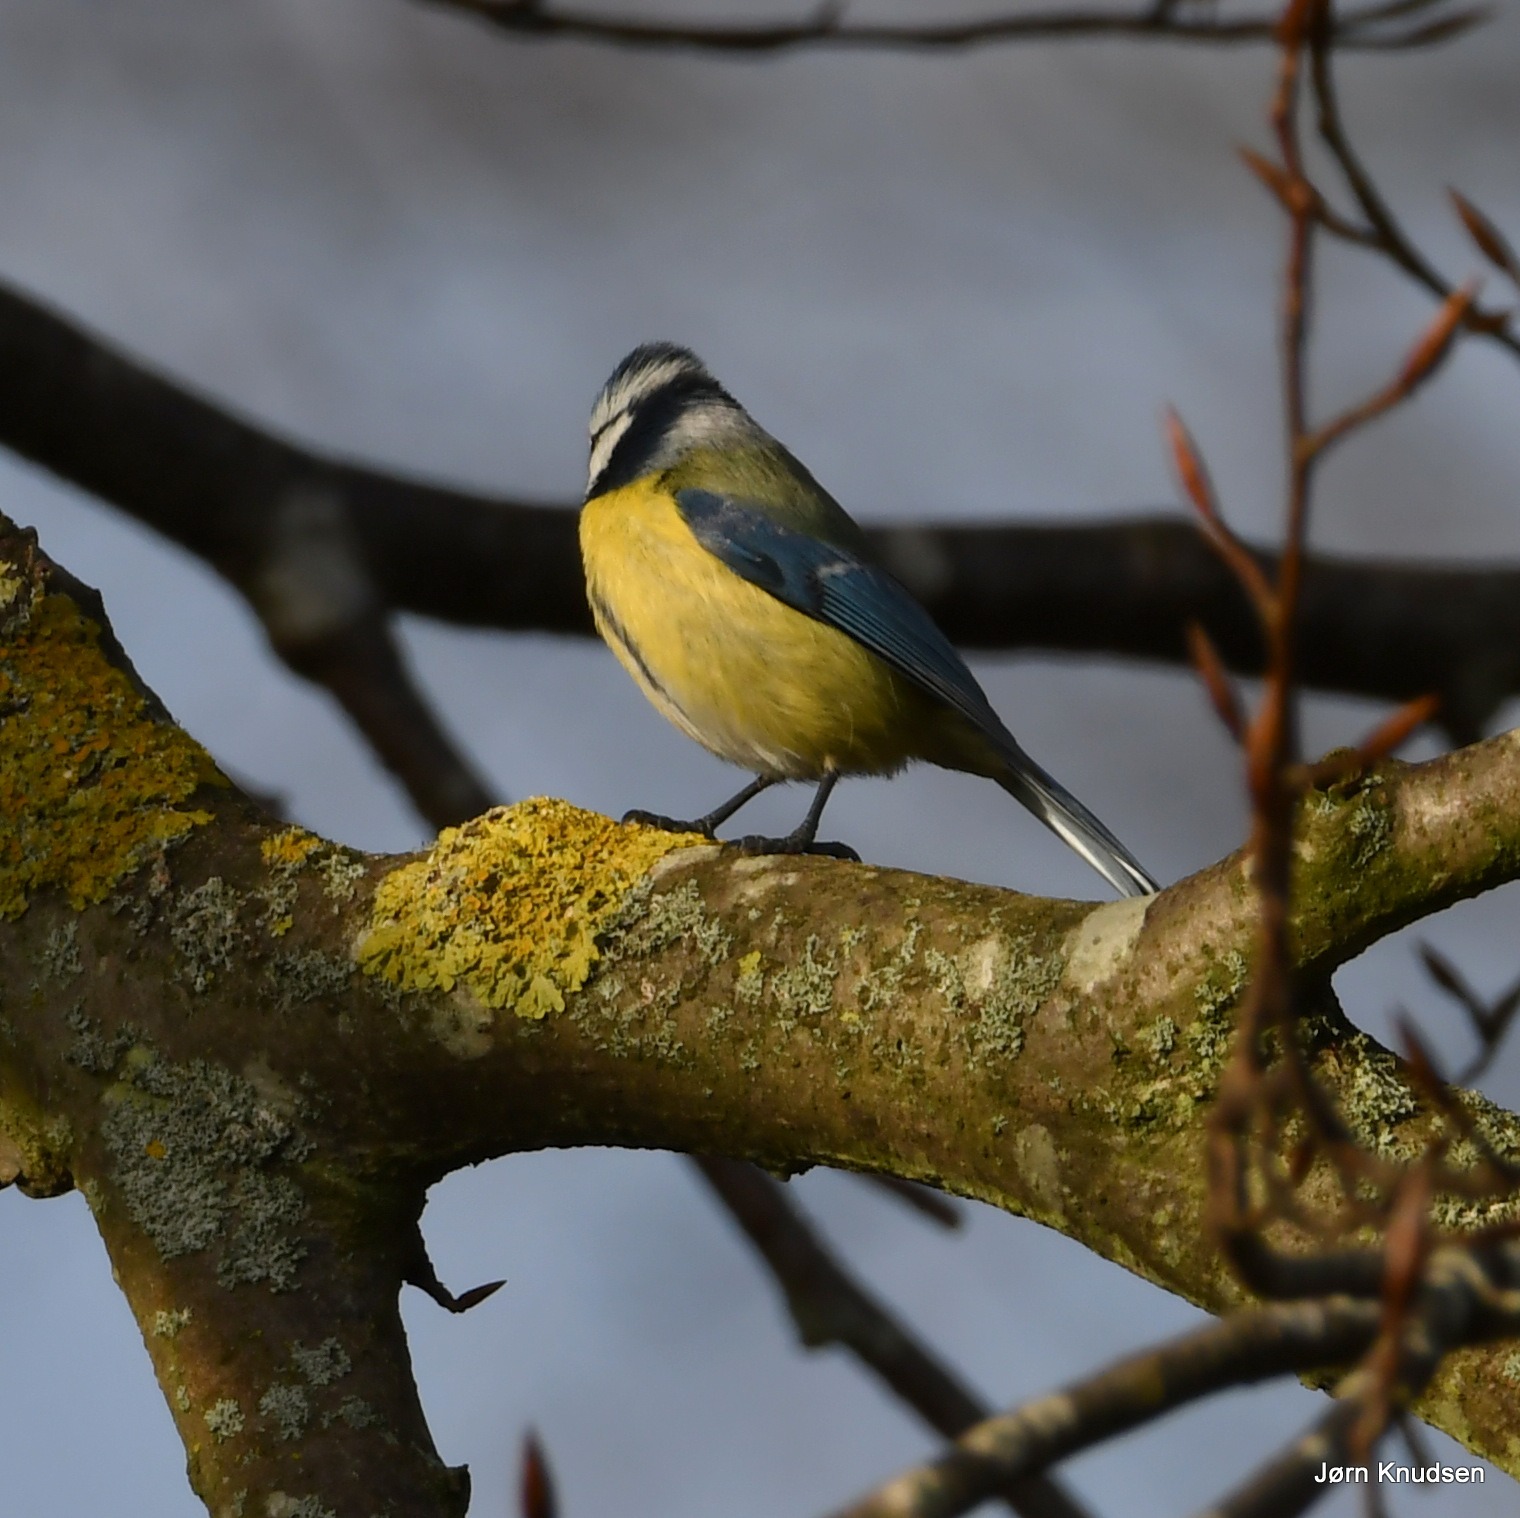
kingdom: Animalia
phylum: Chordata
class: Aves
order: Passeriformes
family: Paridae
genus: Cyanistes
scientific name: Cyanistes caeruleus
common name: Blåmejse
